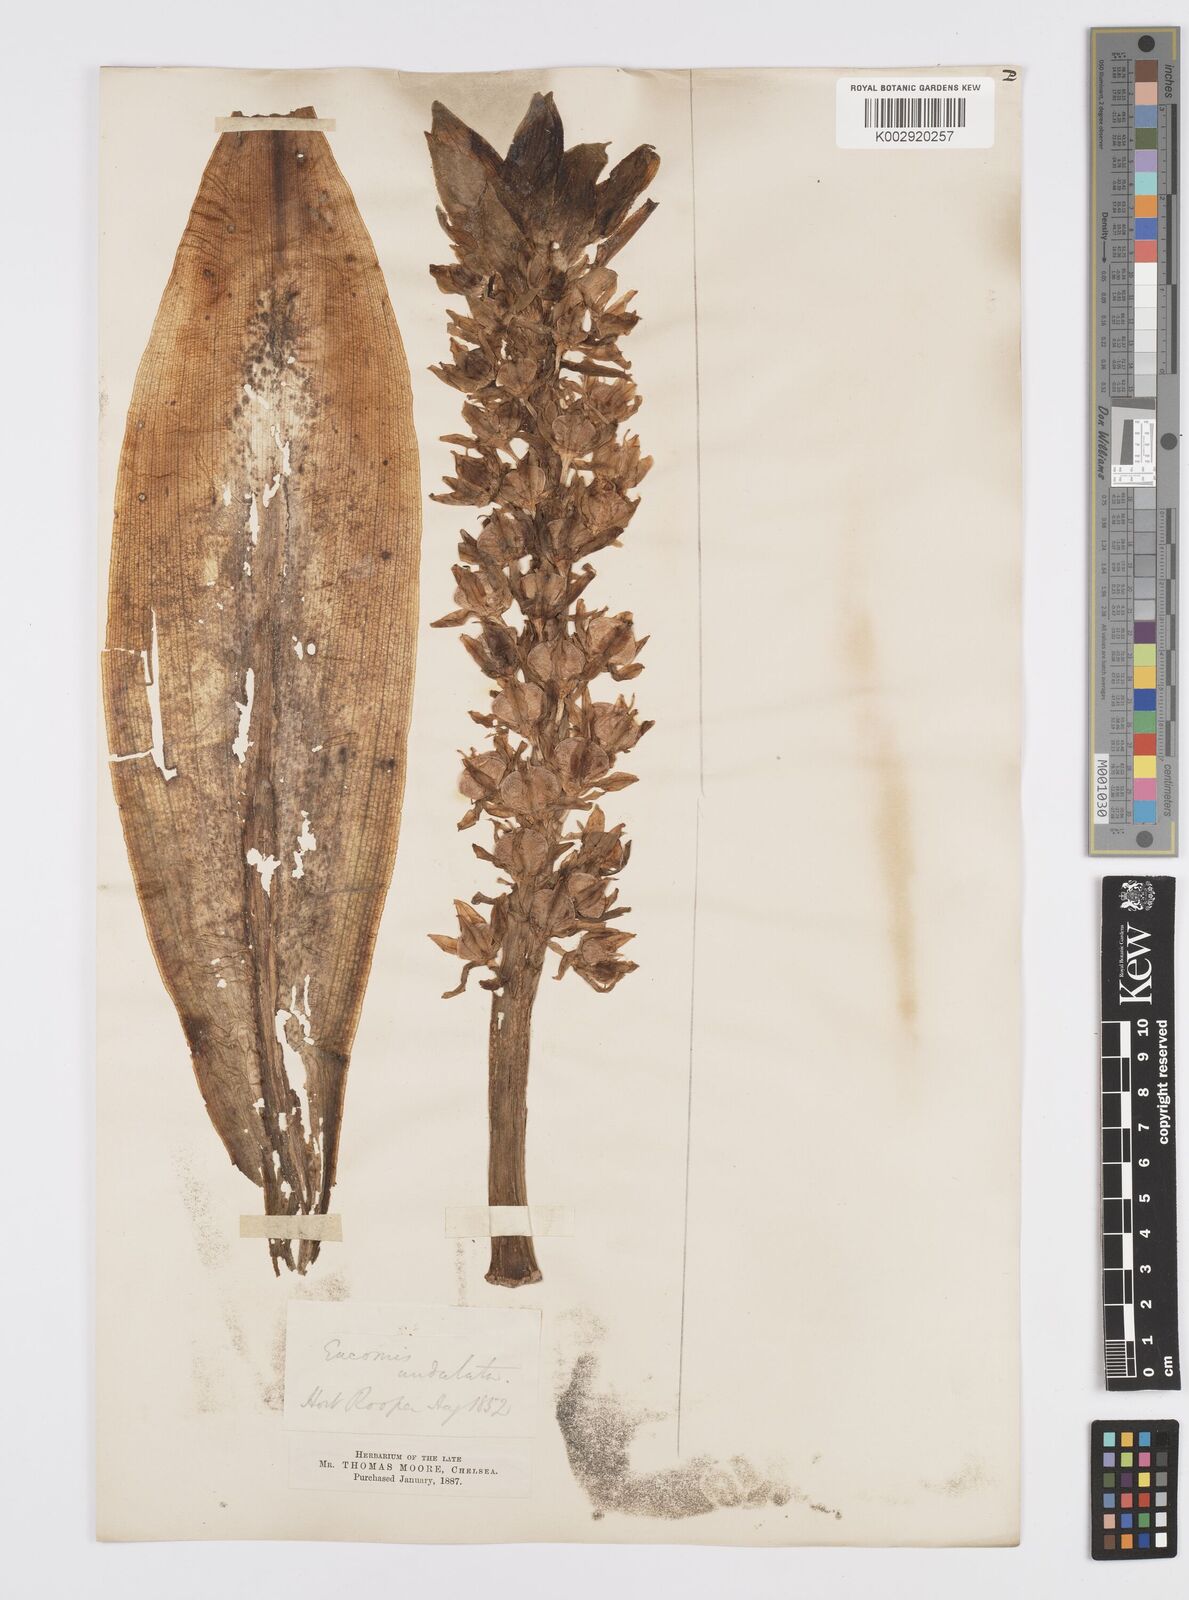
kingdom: Plantae
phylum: Tracheophyta
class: Liliopsida
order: Asparagales
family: Asparagaceae
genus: Eucomis
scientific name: Eucomis autumnalis
